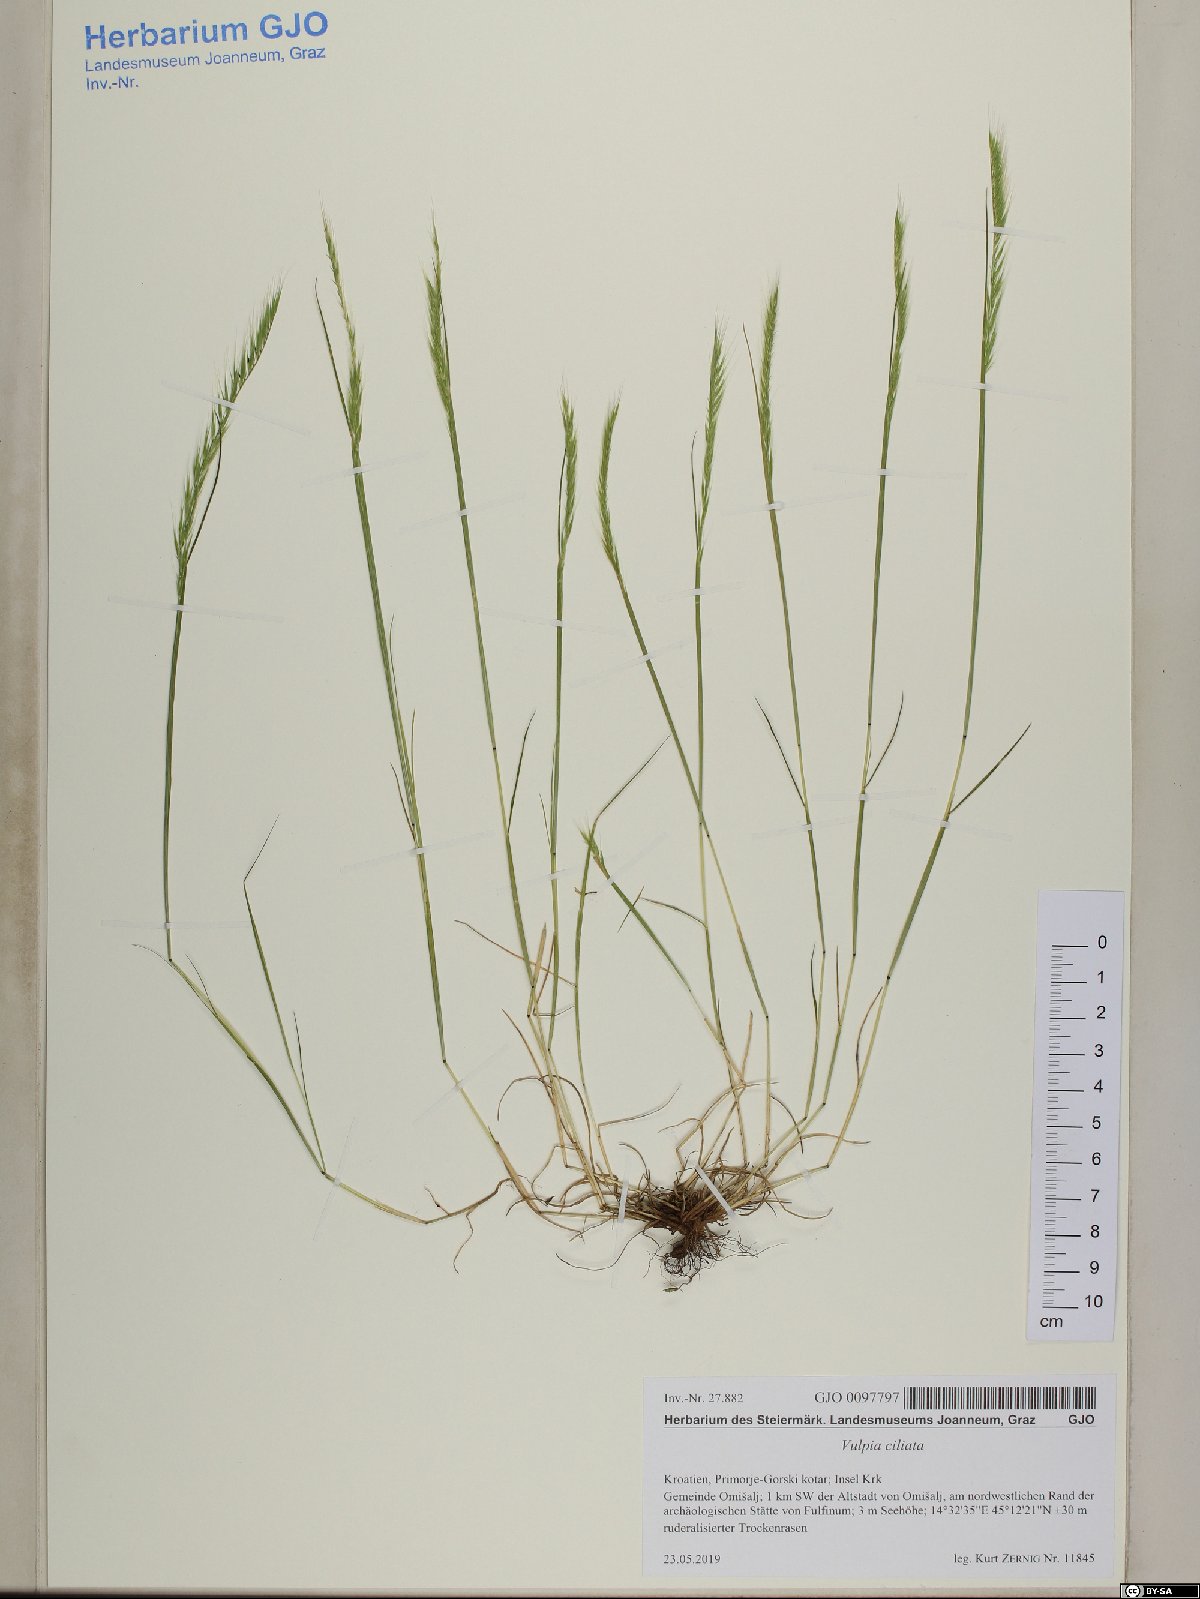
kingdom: Plantae
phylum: Tracheophyta
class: Liliopsida
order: Poales
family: Poaceae
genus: Festuca
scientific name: Festuca ambigua
